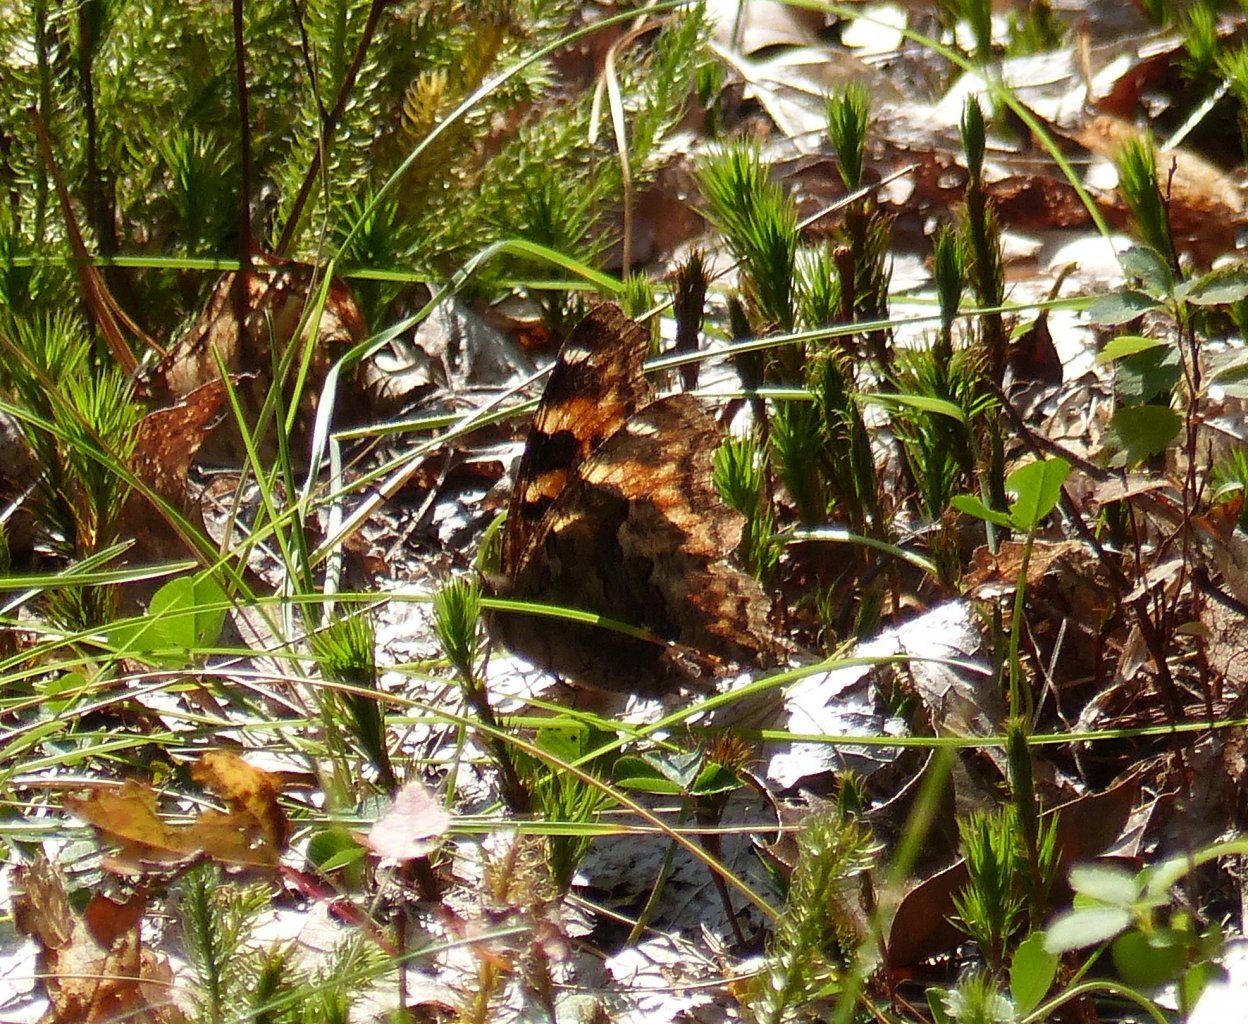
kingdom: Animalia
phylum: Arthropoda
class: Insecta
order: Lepidoptera
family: Nymphalidae
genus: Polygonia
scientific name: Polygonia vaualbum
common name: Compton Tortoiseshell
